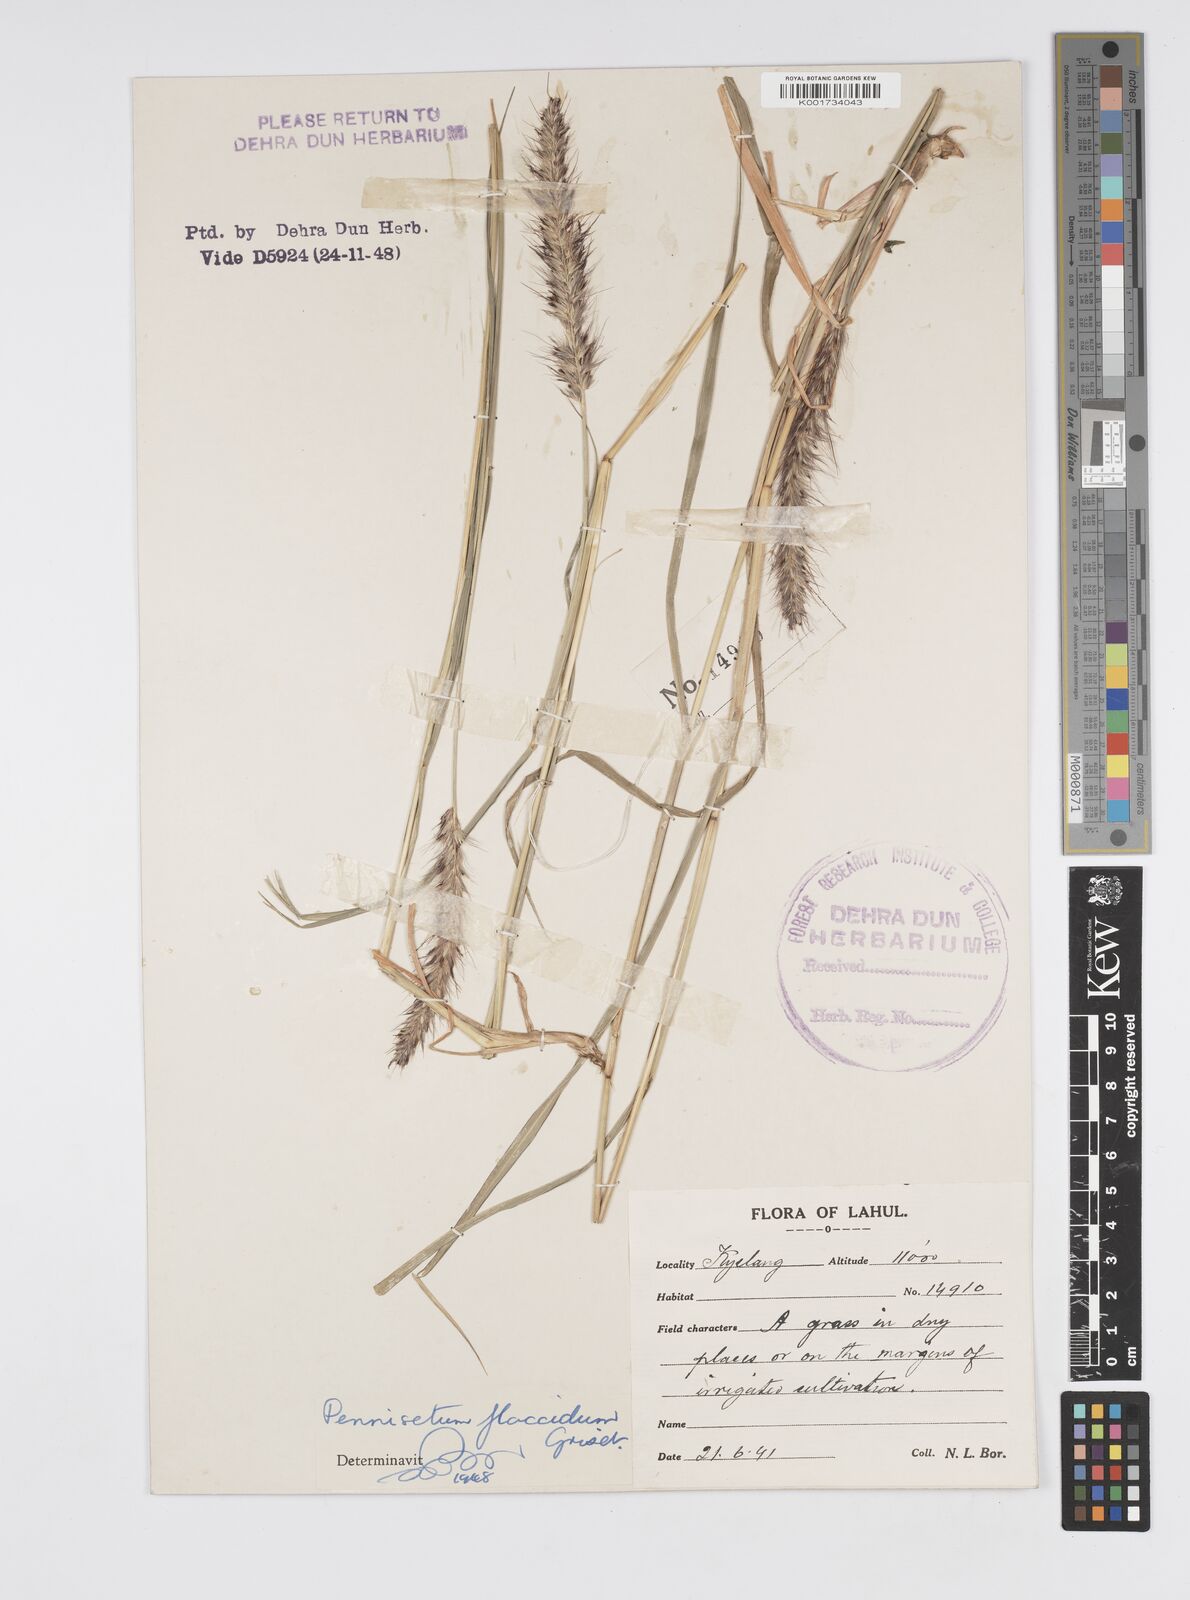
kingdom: Plantae
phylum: Tracheophyta
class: Liliopsida
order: Poales
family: Poaceae
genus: Cenchrus
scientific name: Cenchrus flaccidus
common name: Flaccid grass
